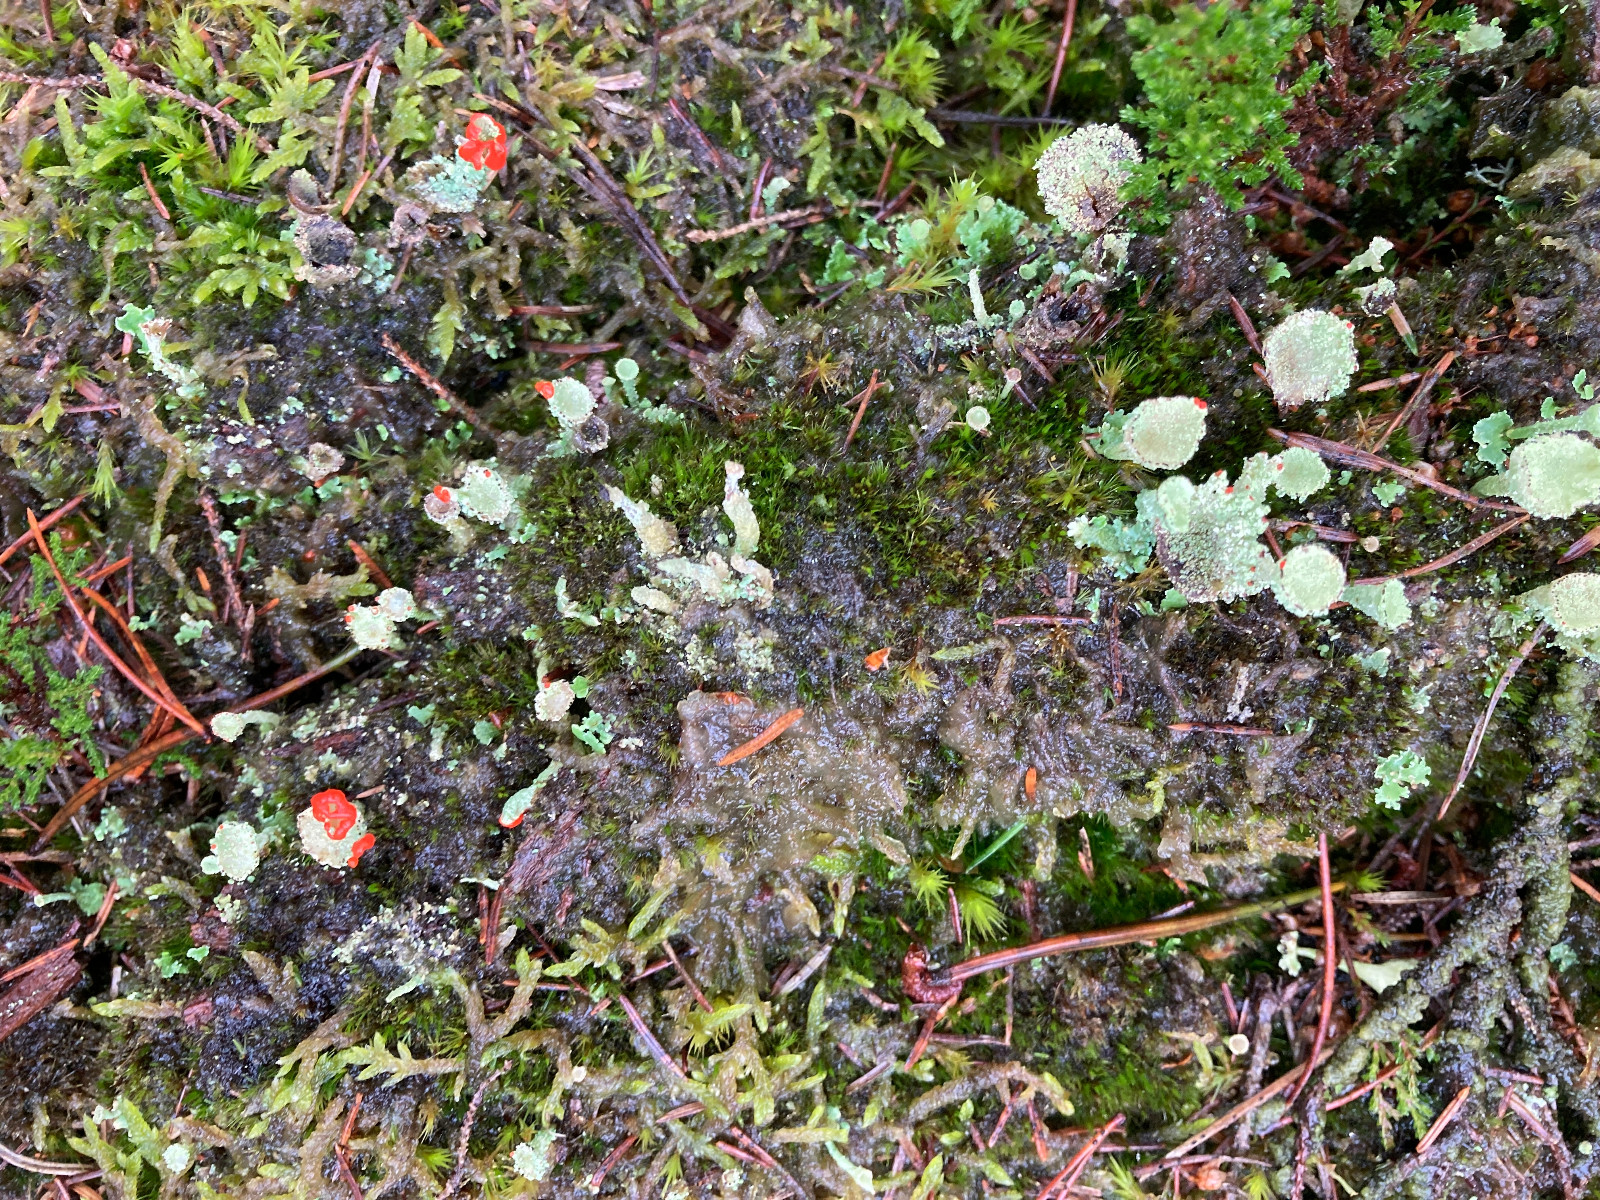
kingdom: Fungi
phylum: Ascomycota
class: Lecanoromycetes
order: Lecanorales
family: Cladoniaceae
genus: Cladonia
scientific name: Cladonia diversa
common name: rød bægerlav
